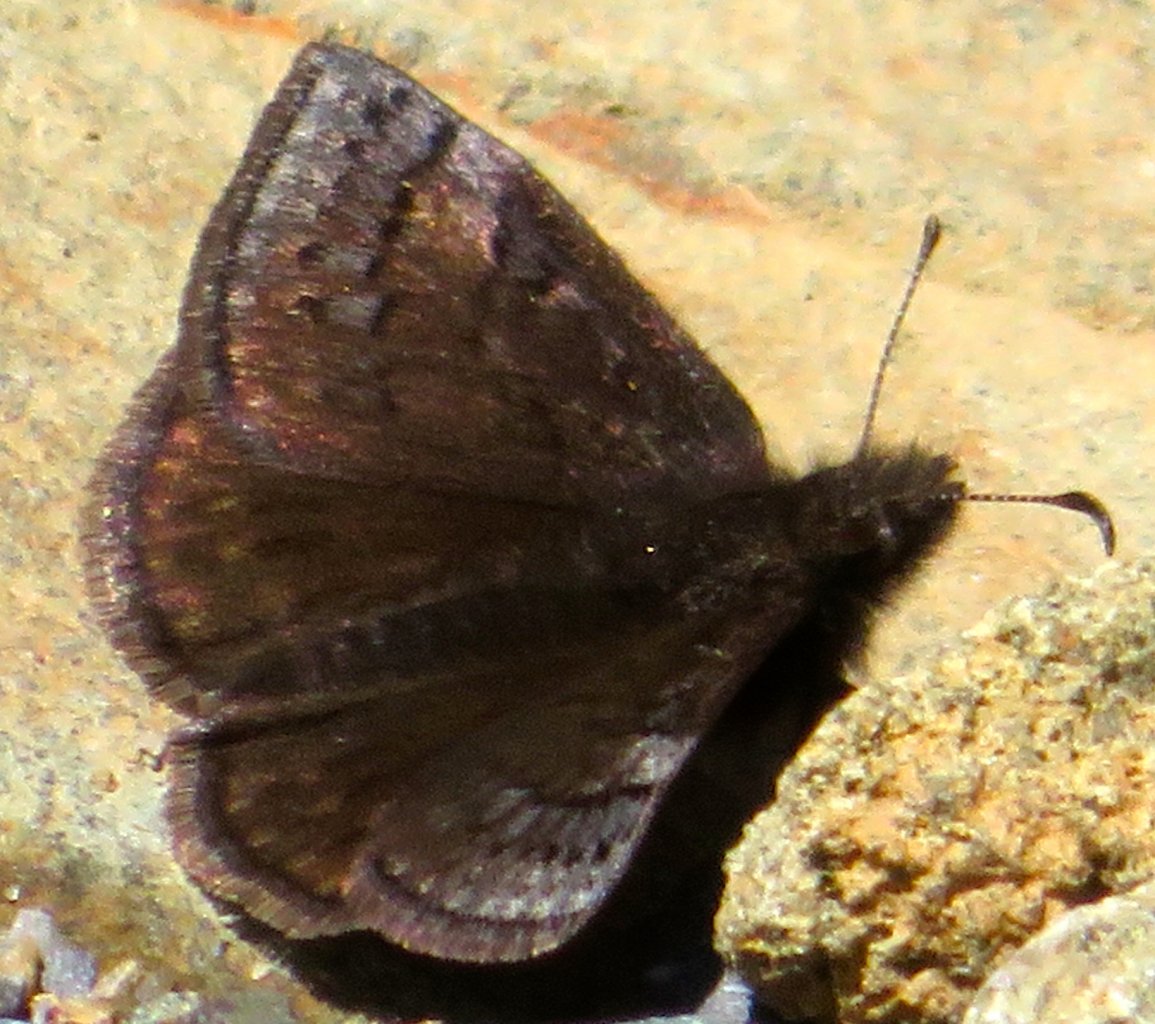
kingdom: Animalia
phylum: Arthropoda
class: Insecta
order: Lepidoptera
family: Hesperiidae
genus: Erynnis
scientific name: Erynnis icelus
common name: Dreamy Duskywing
